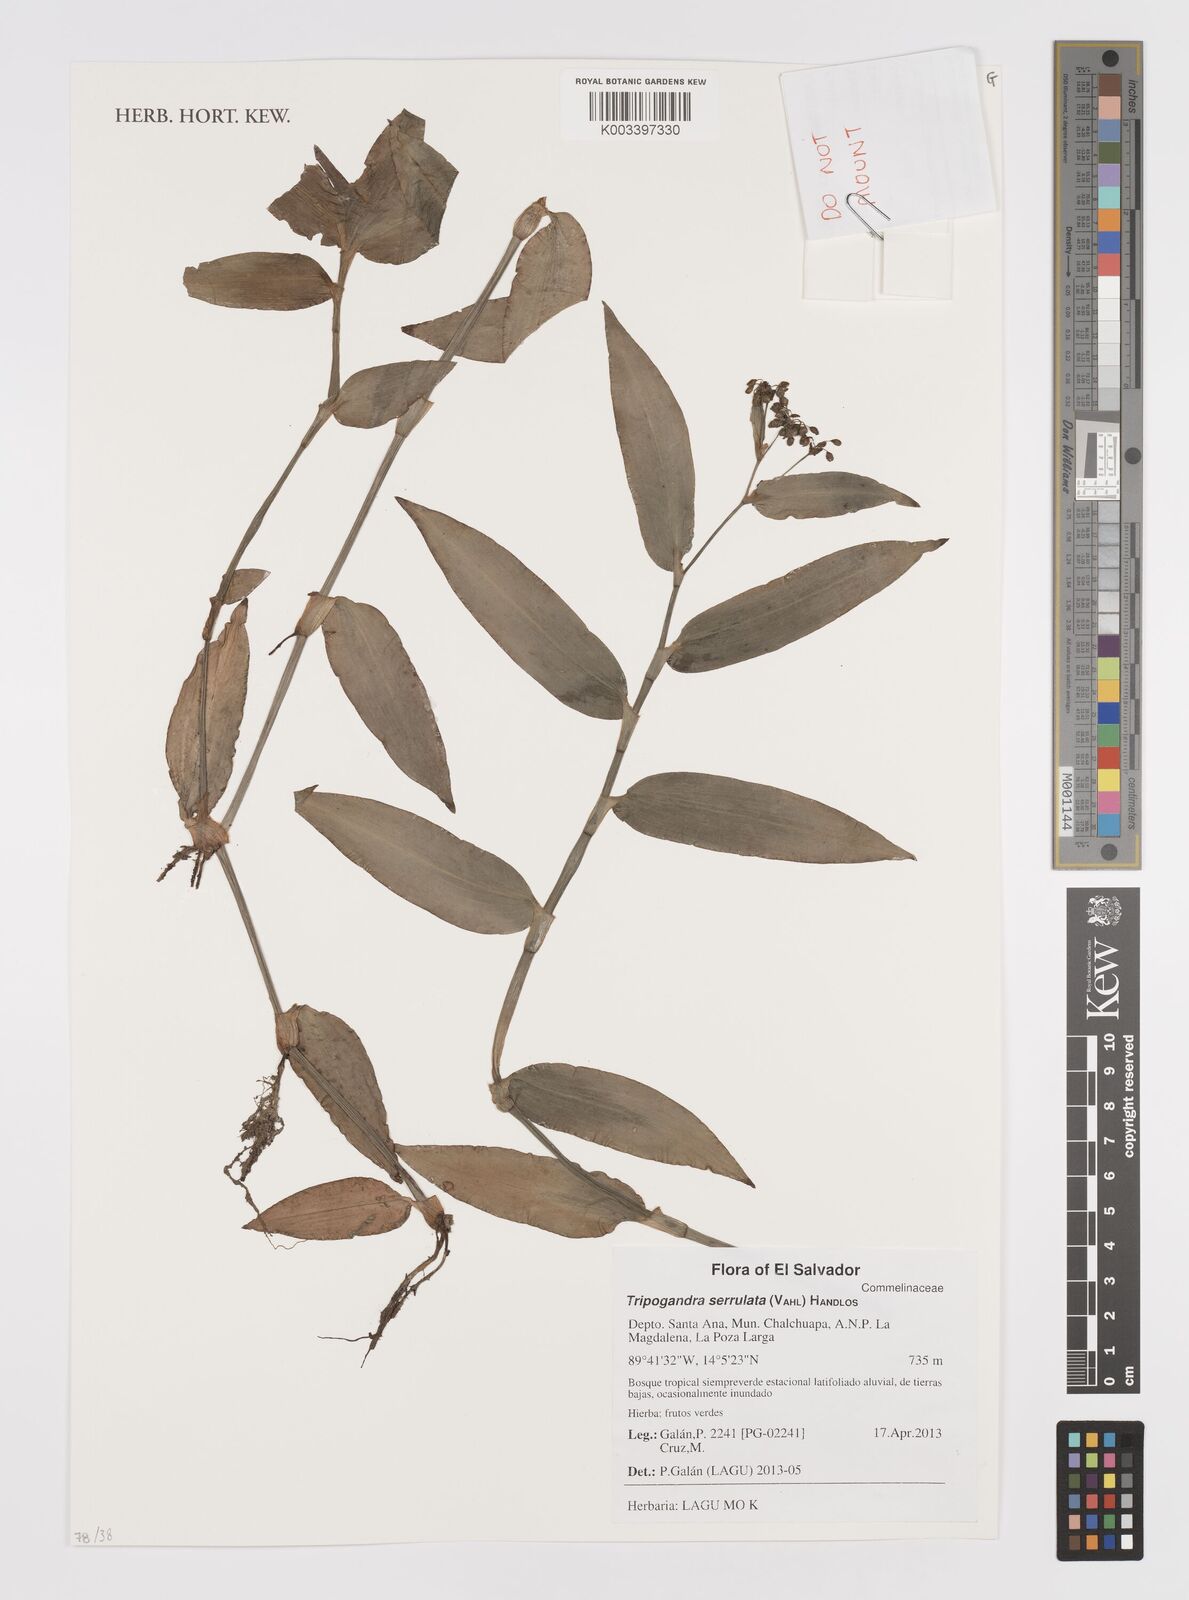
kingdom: Plantae
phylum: Tracheophyta
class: Liliopsida
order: Commelinales
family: Commelinaceae
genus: Callisia
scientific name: Callisia serrulata
